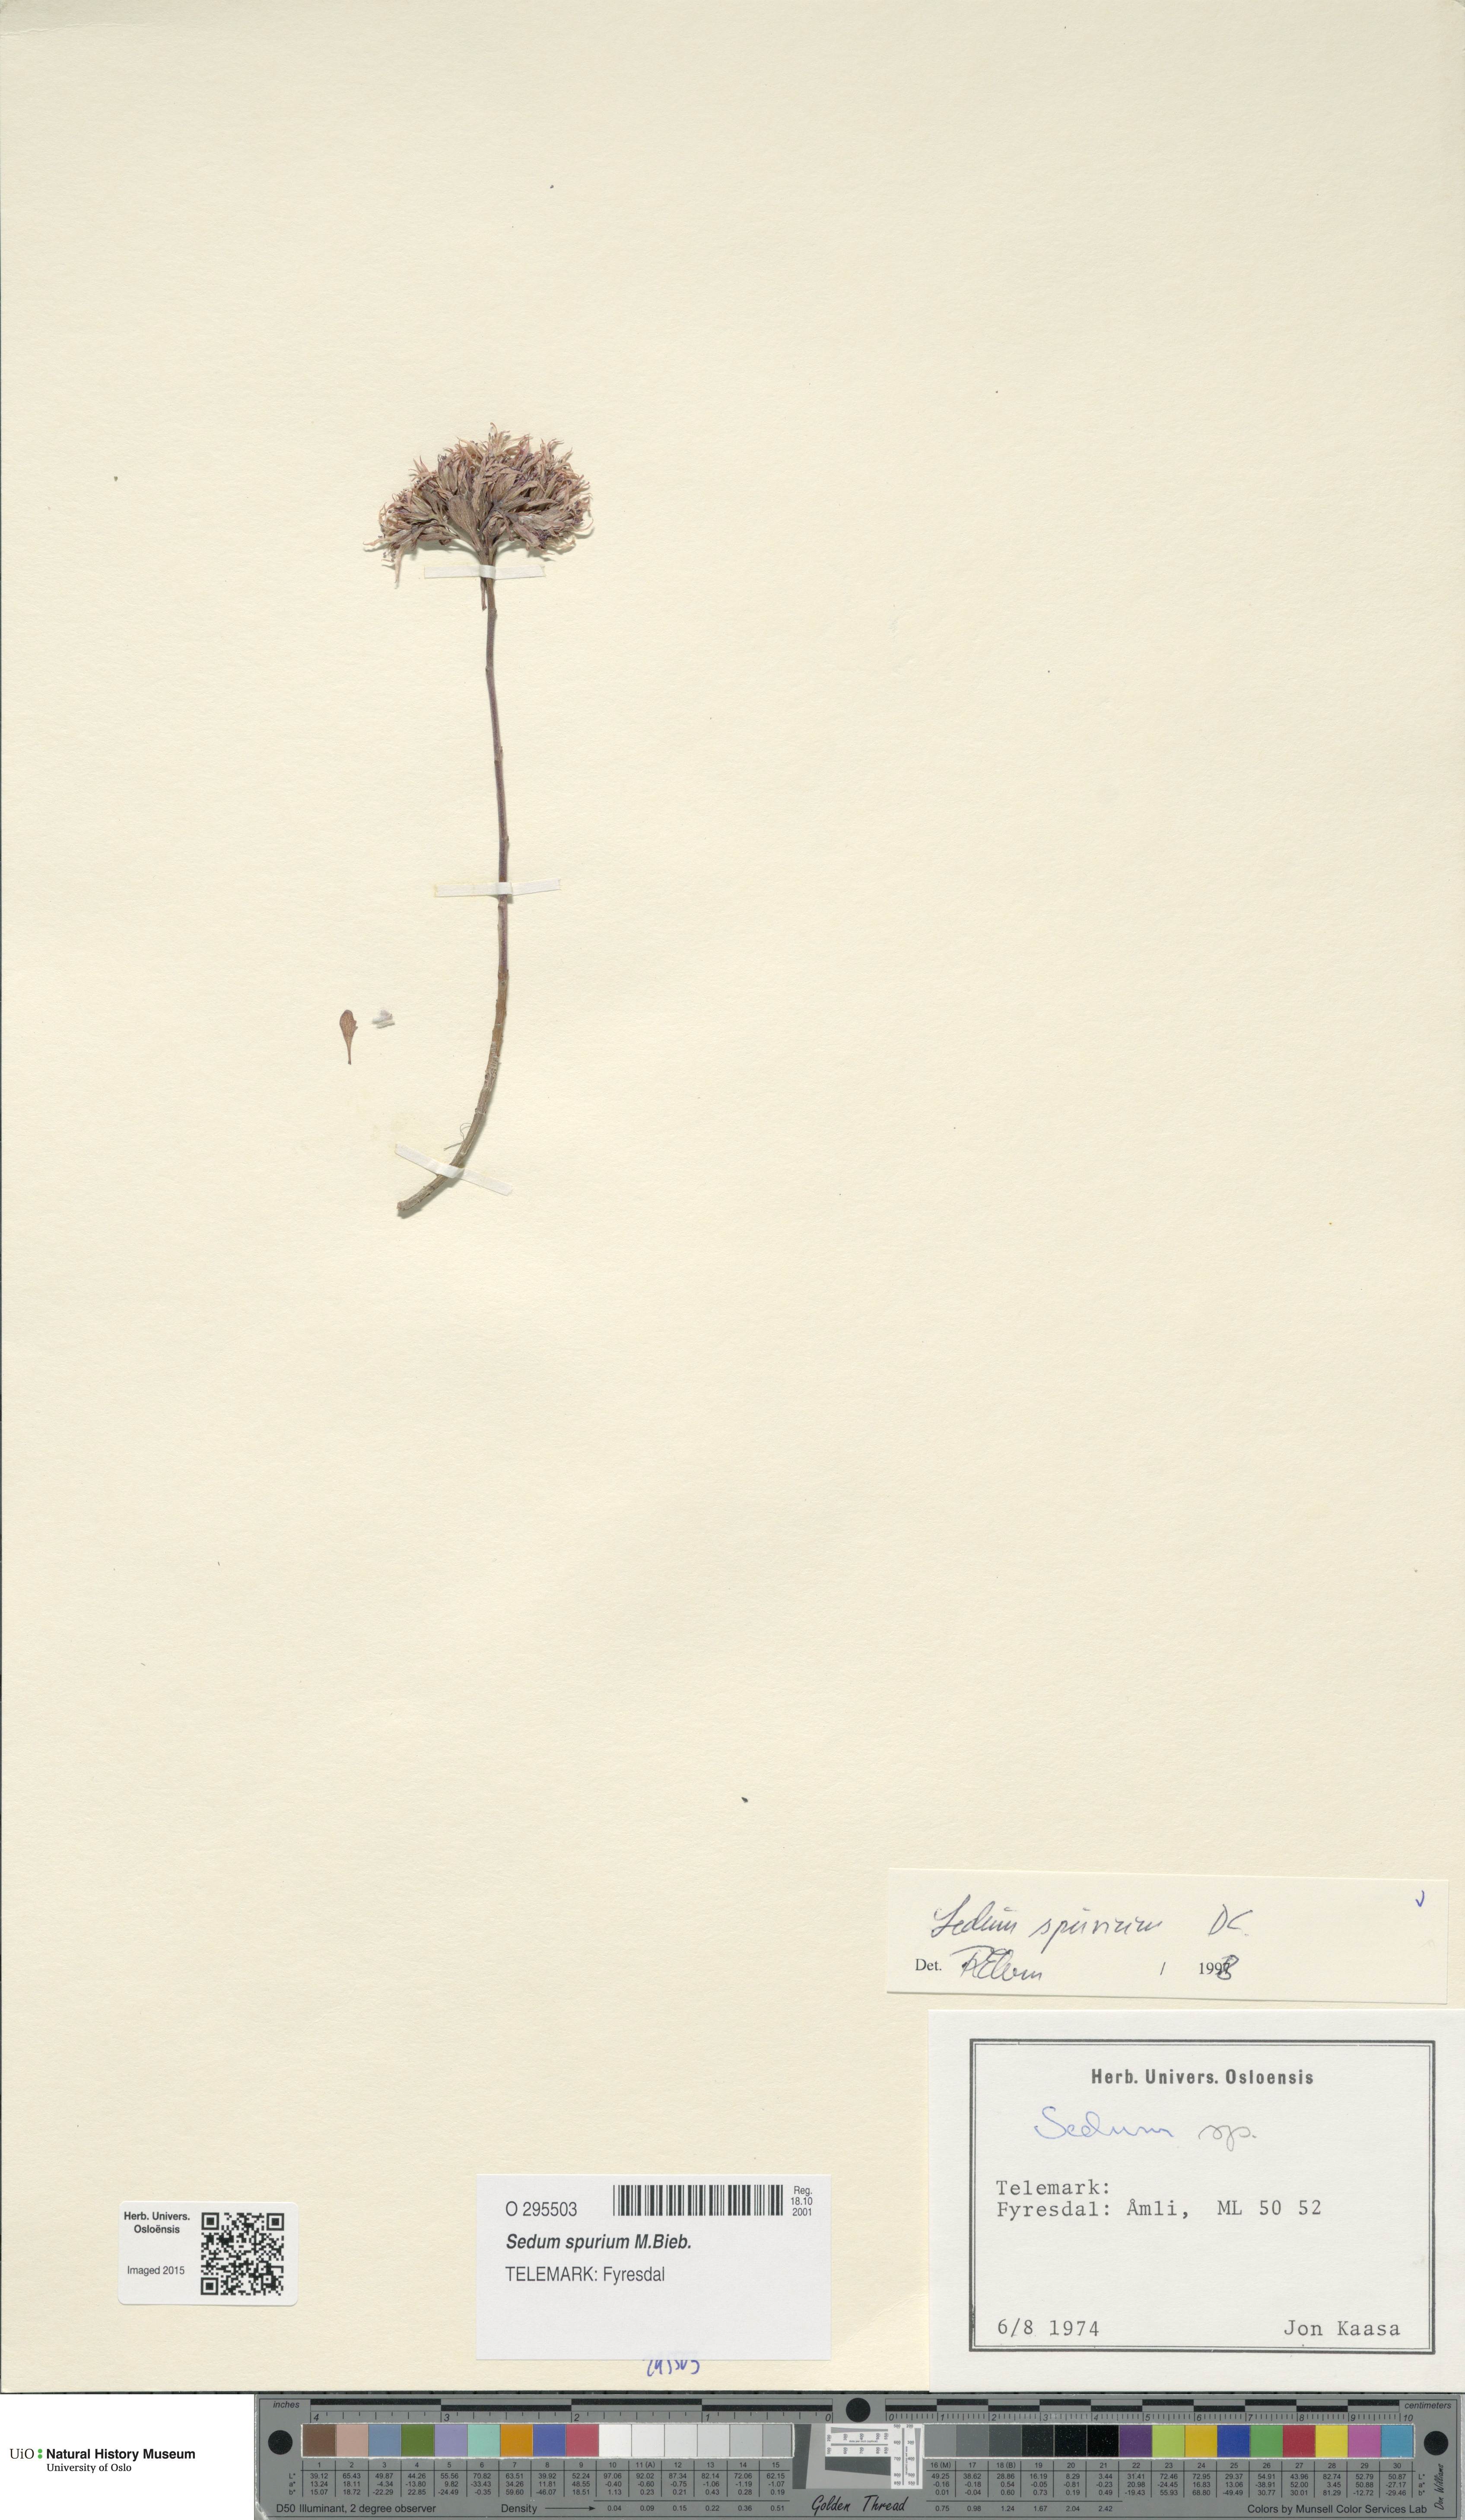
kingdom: Plantae
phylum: Tracheophyta
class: Magnoliopsida
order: Saxifragales
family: Crassulaceae
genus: Phedimus
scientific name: Phedimus spurius
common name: Caucasian stonecrop
